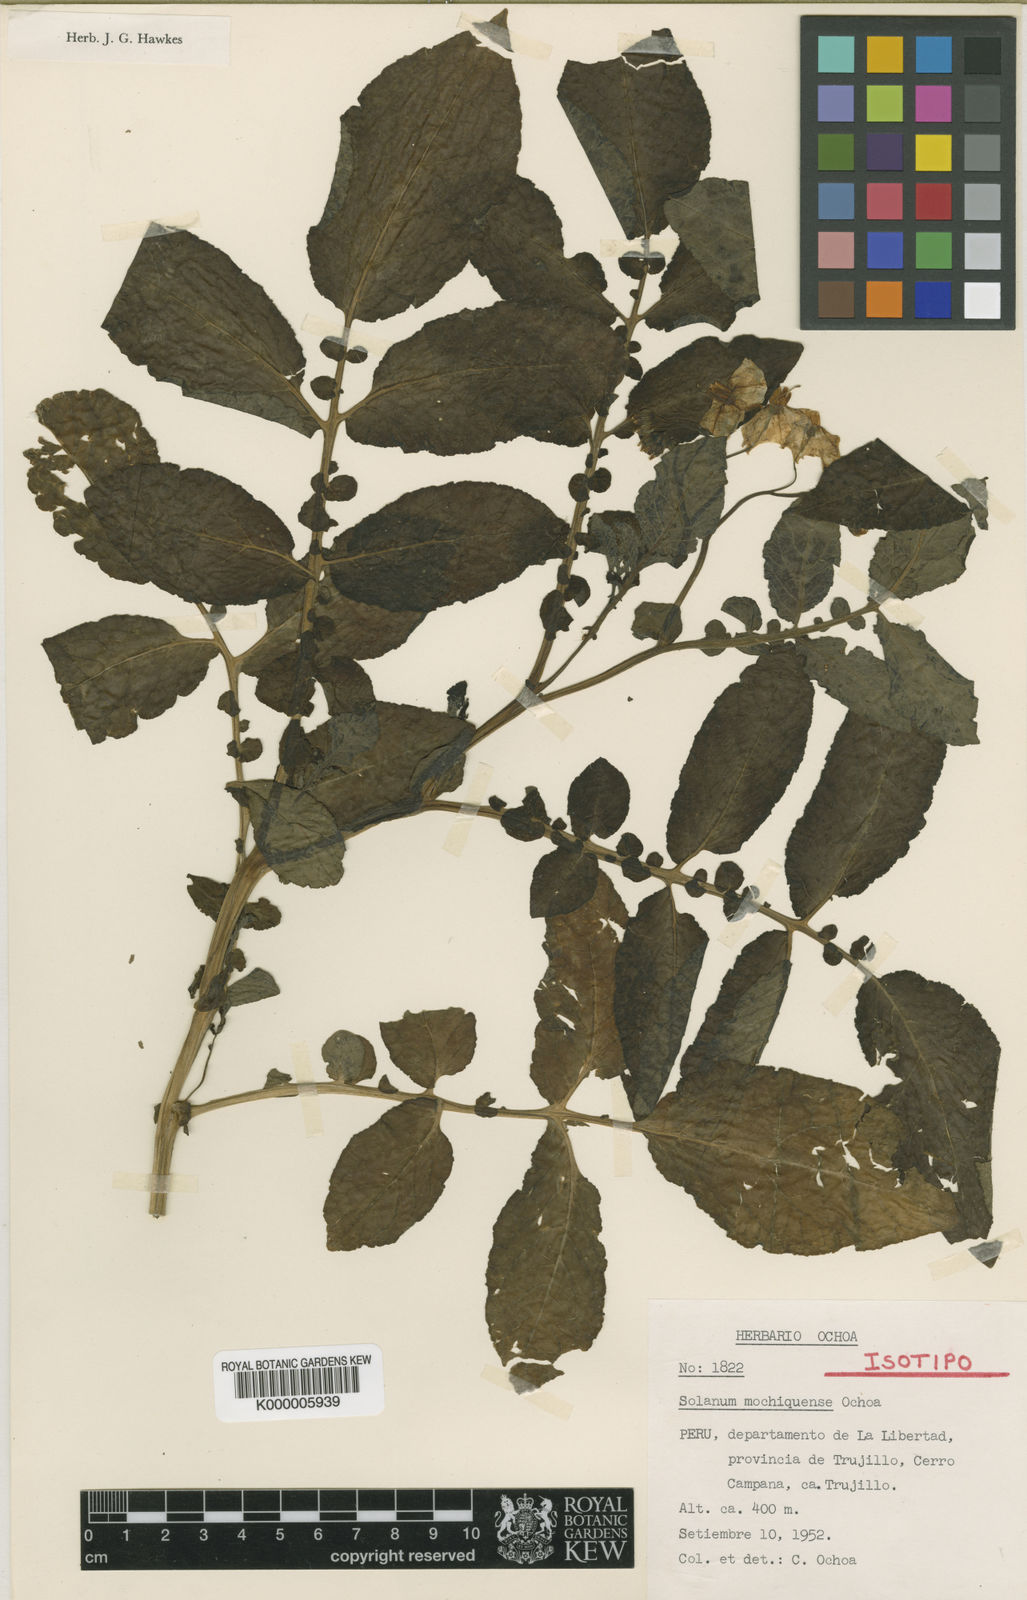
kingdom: Plantae
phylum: Tracheophyta
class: Magnoliopsida
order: Solanales
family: Solanaceae
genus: Solanum
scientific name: Solanum mochiquense
